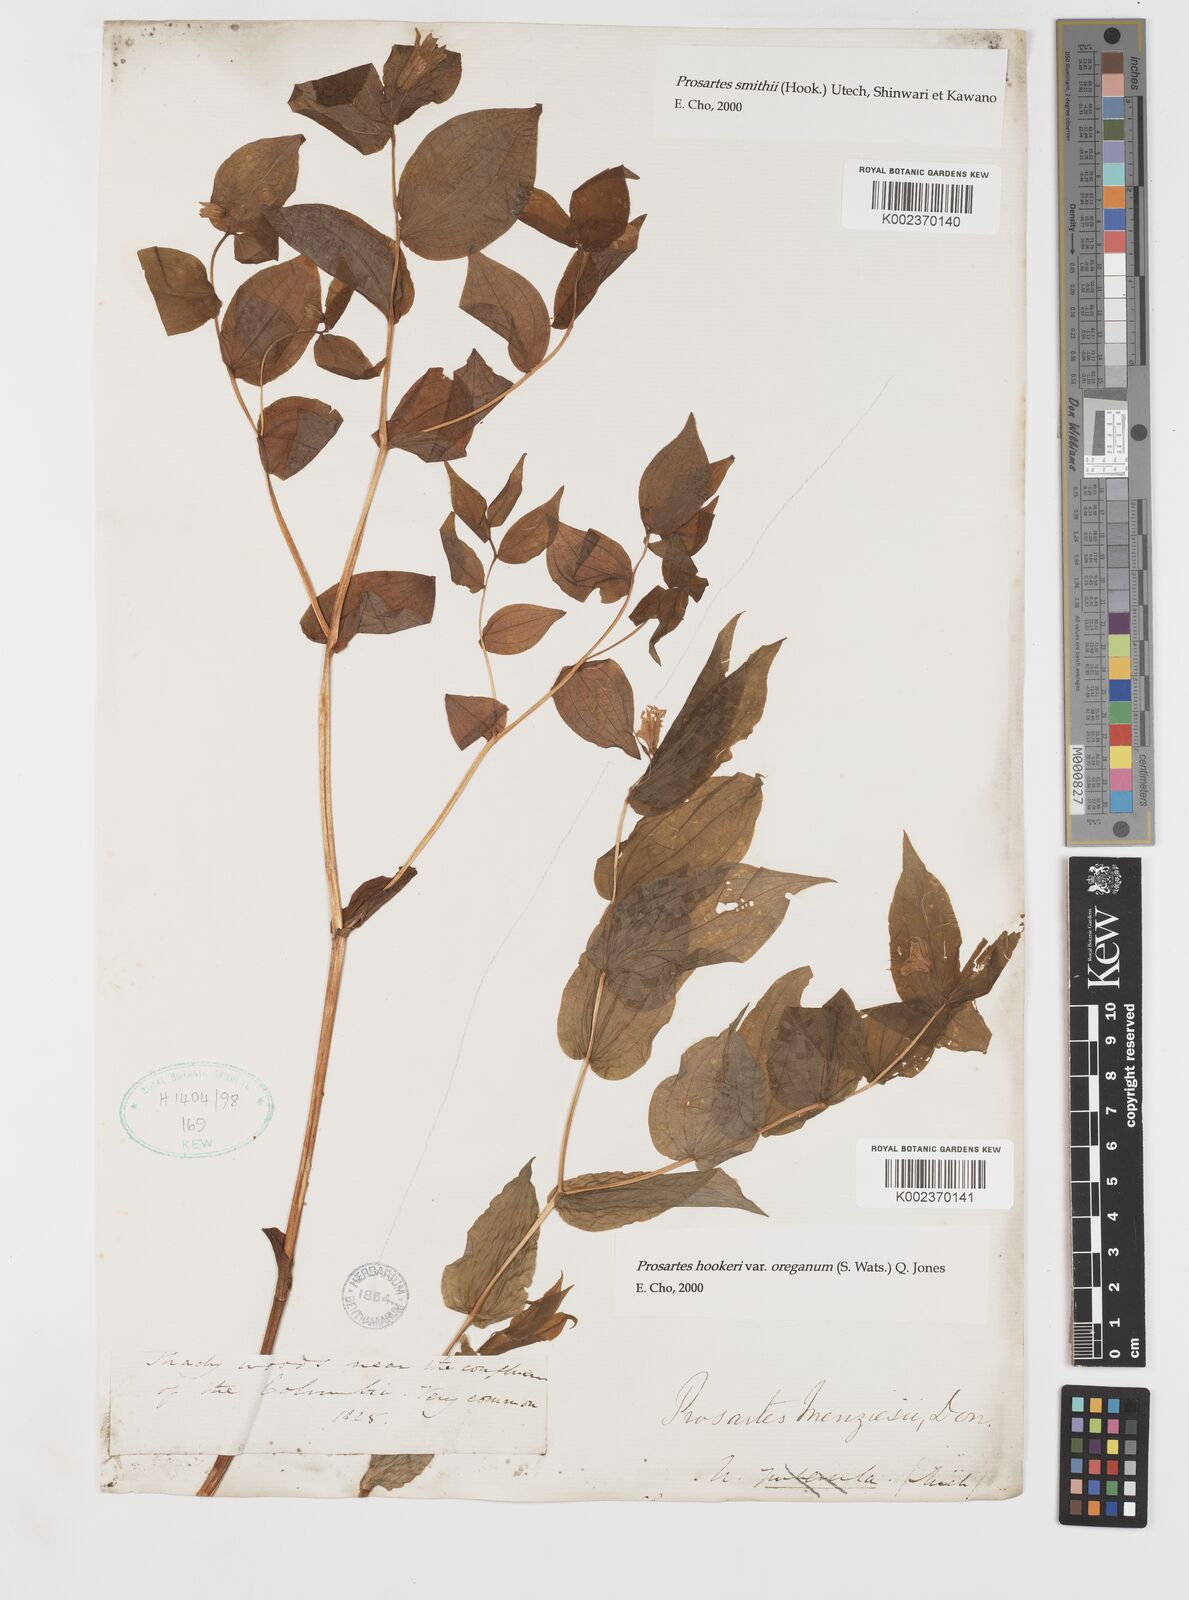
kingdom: Plantae
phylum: Tracheophyta
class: Liliopsida
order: Liliales
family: Liliaceae
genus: Prosartes
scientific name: Prosartes hookeri
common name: Fairy-bells
